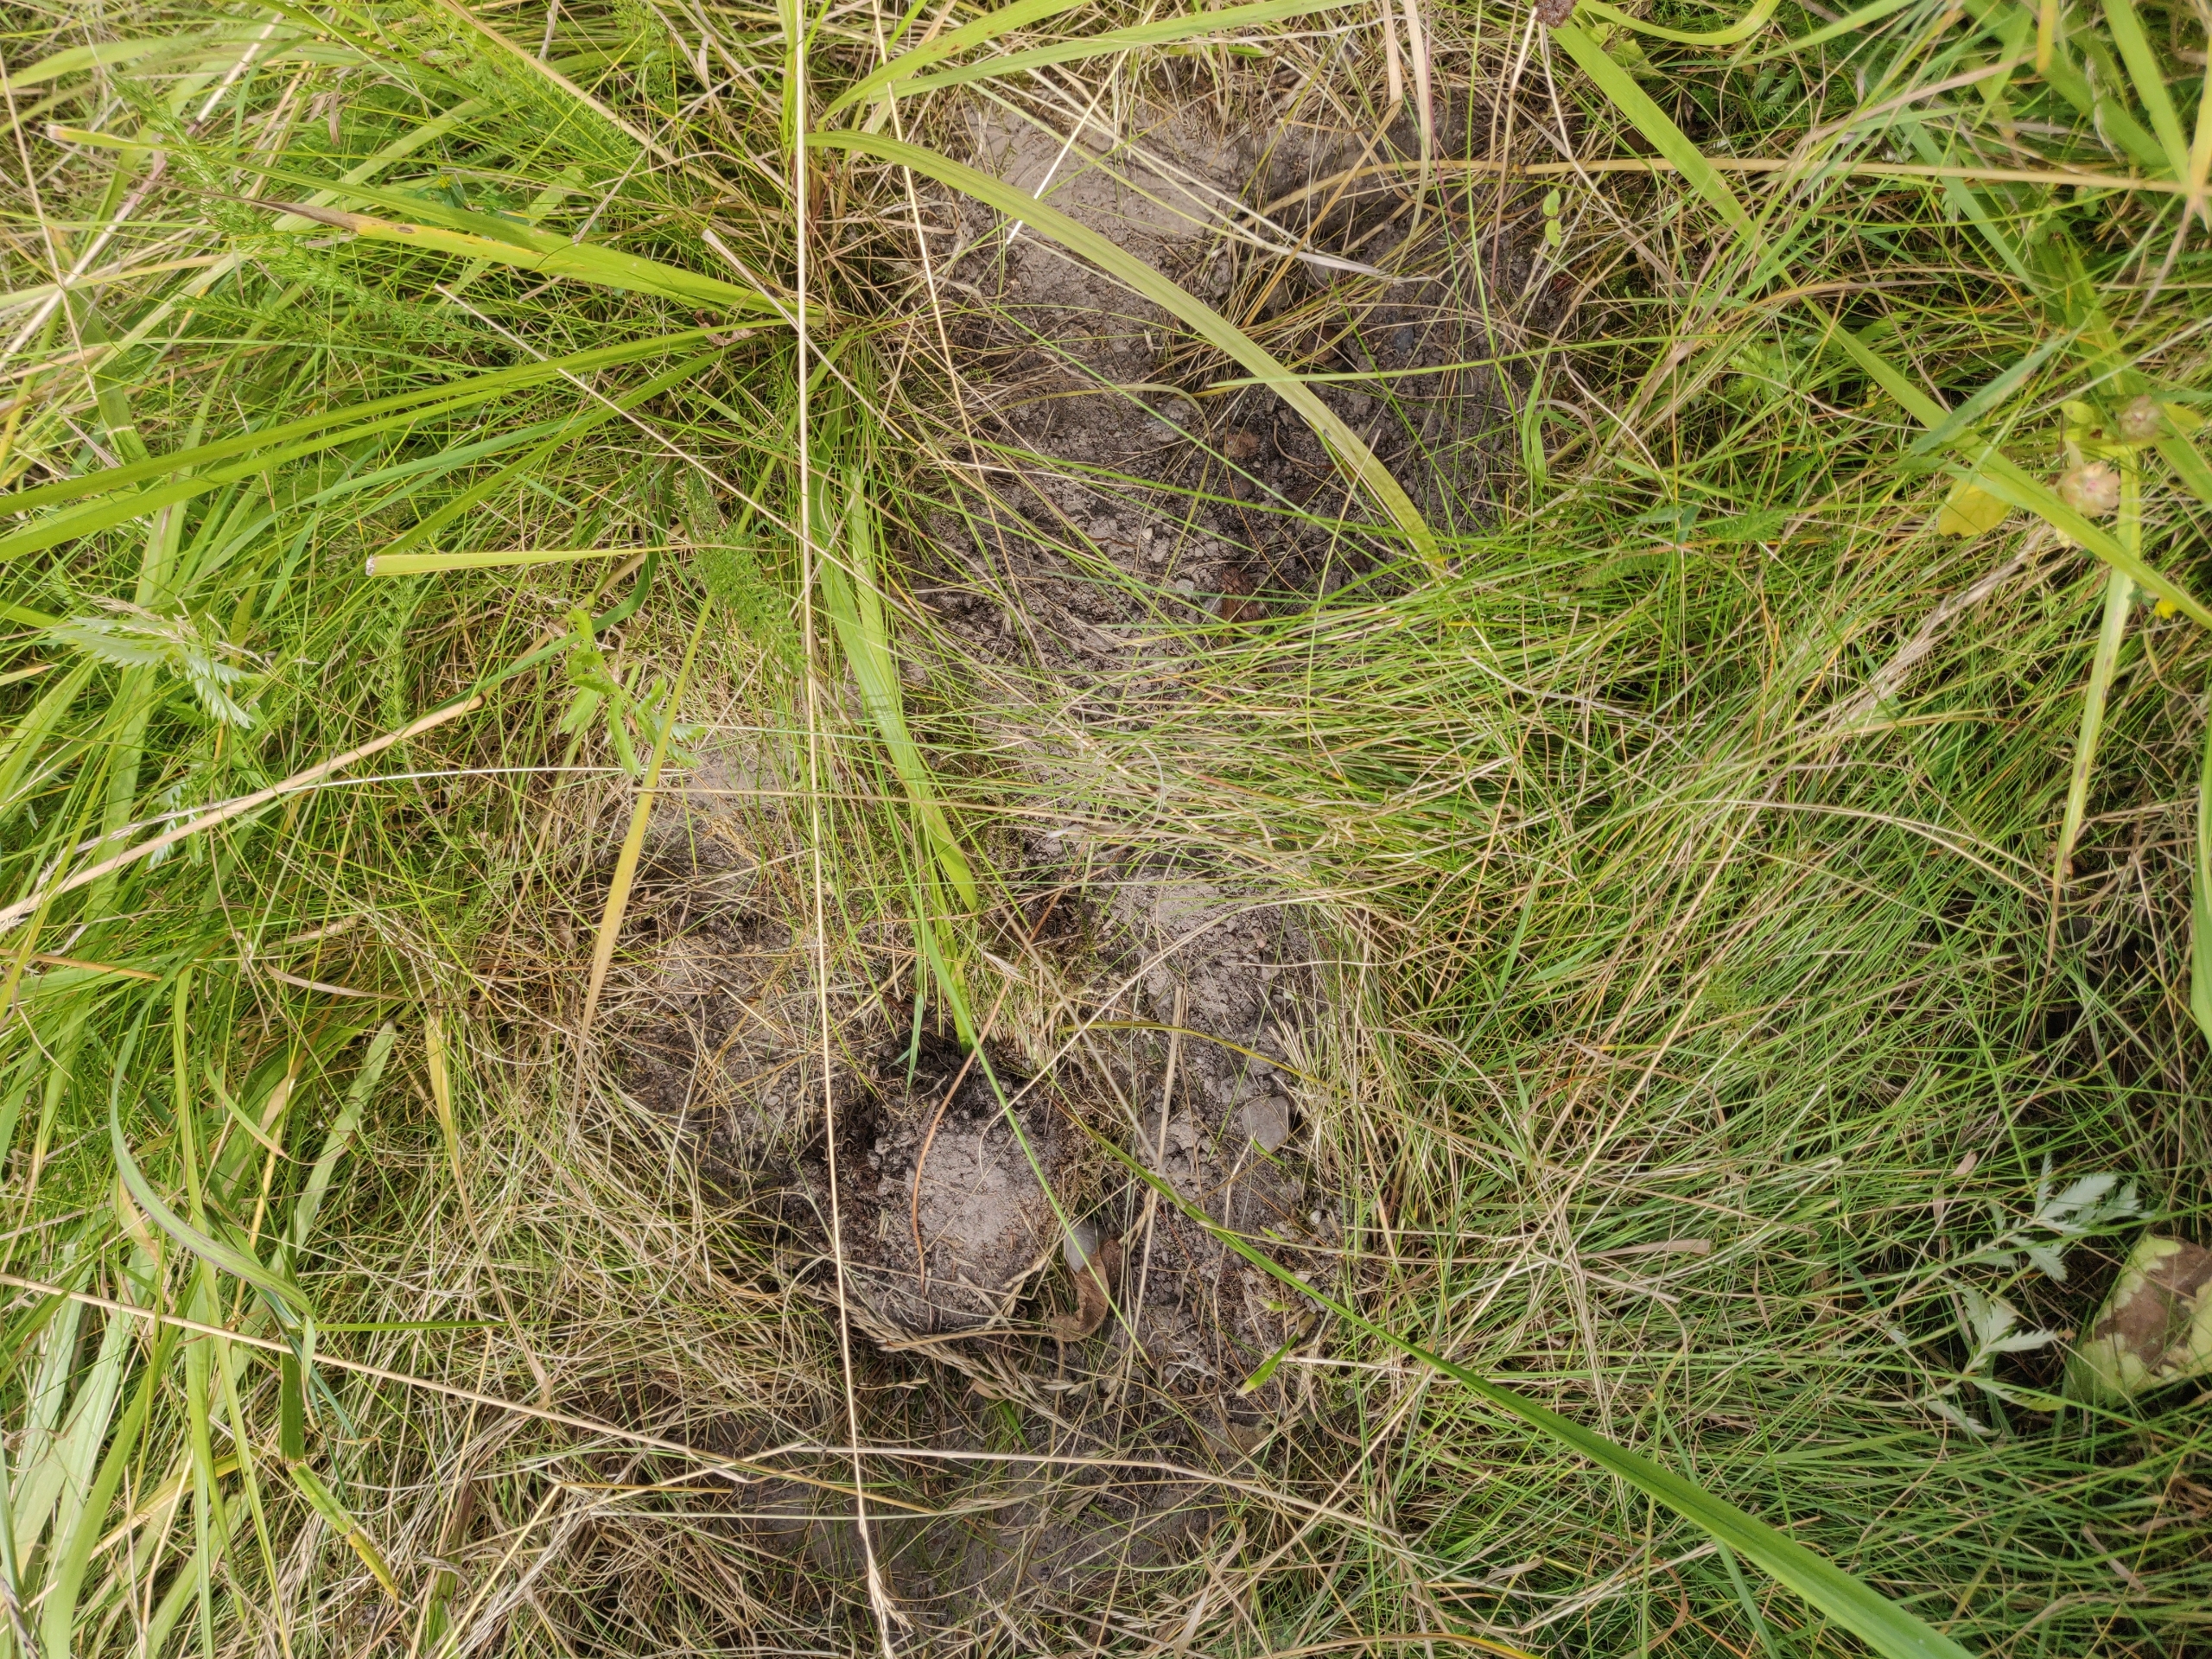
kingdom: Plantae
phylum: Tracheophyta
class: Magnoliopsida
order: Lamiales
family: Lamiaceae
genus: Betonica
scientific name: Betonica officinalis
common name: Betonie
